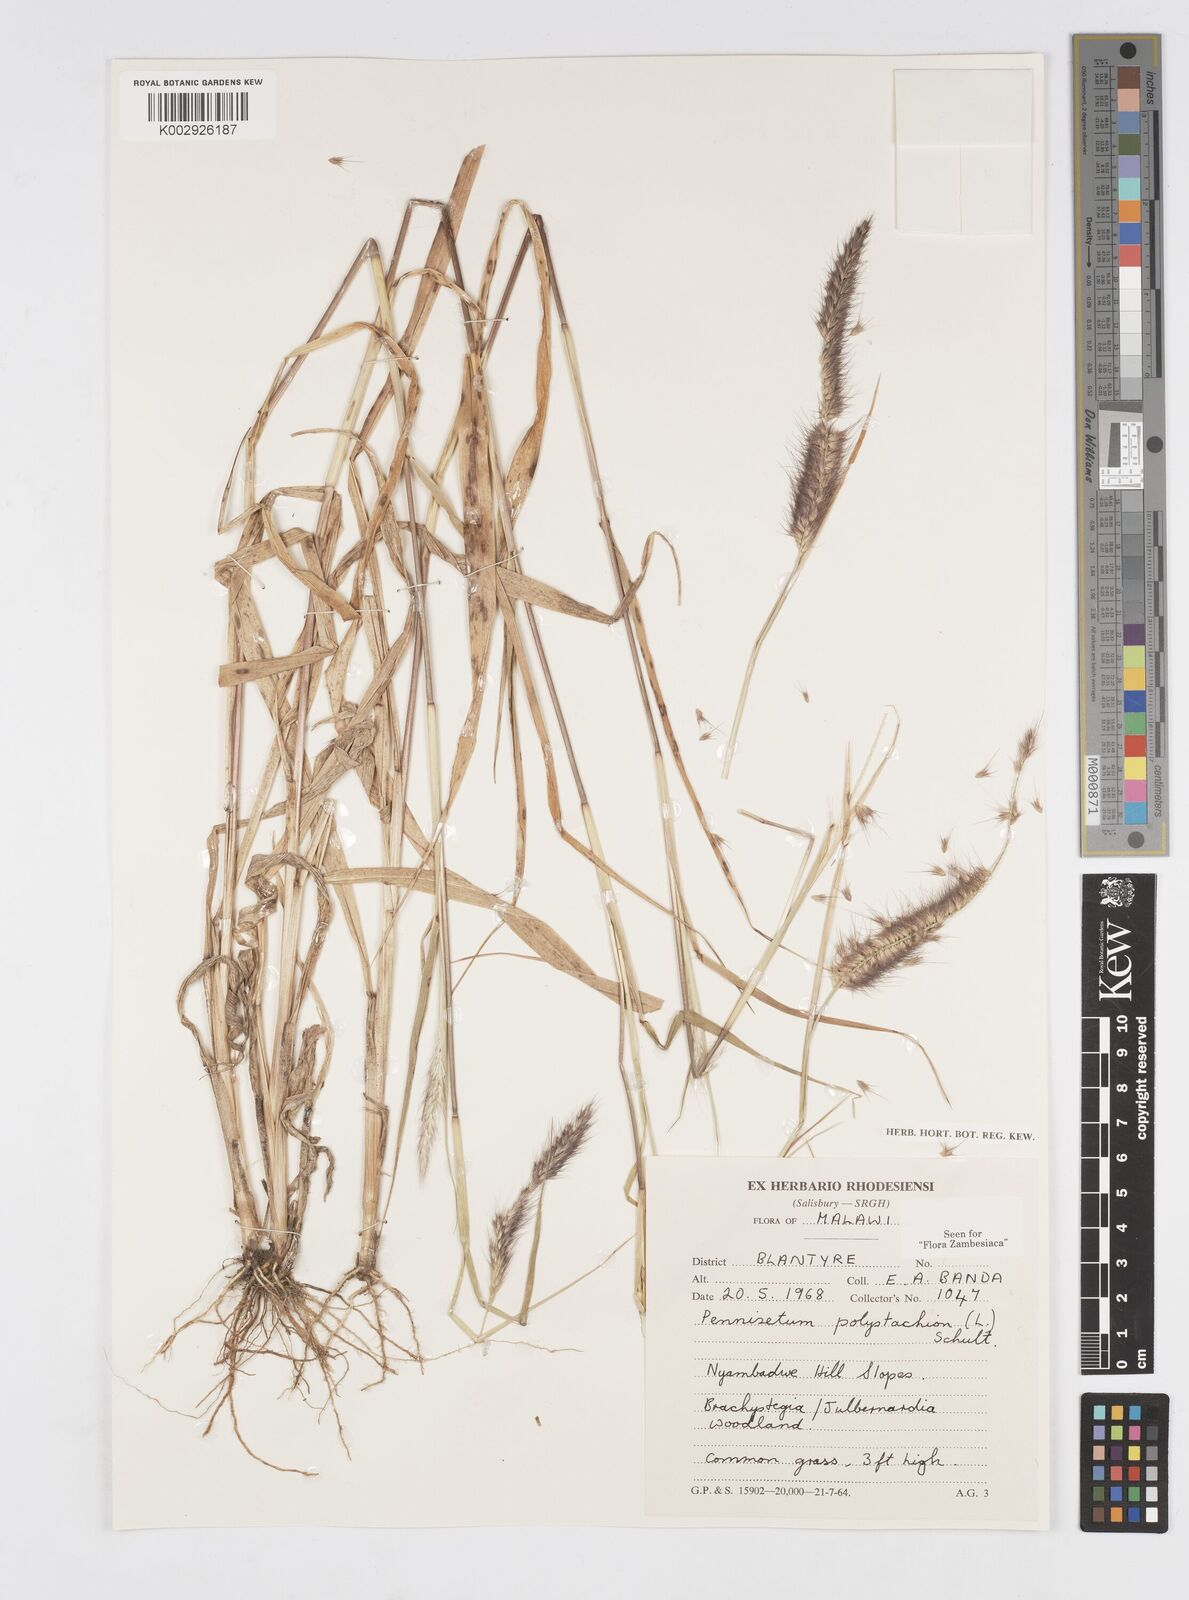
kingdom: Plantae
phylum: Tracheophyta
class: Liliopsida
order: Poales
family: Poaceae
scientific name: Poaceae
